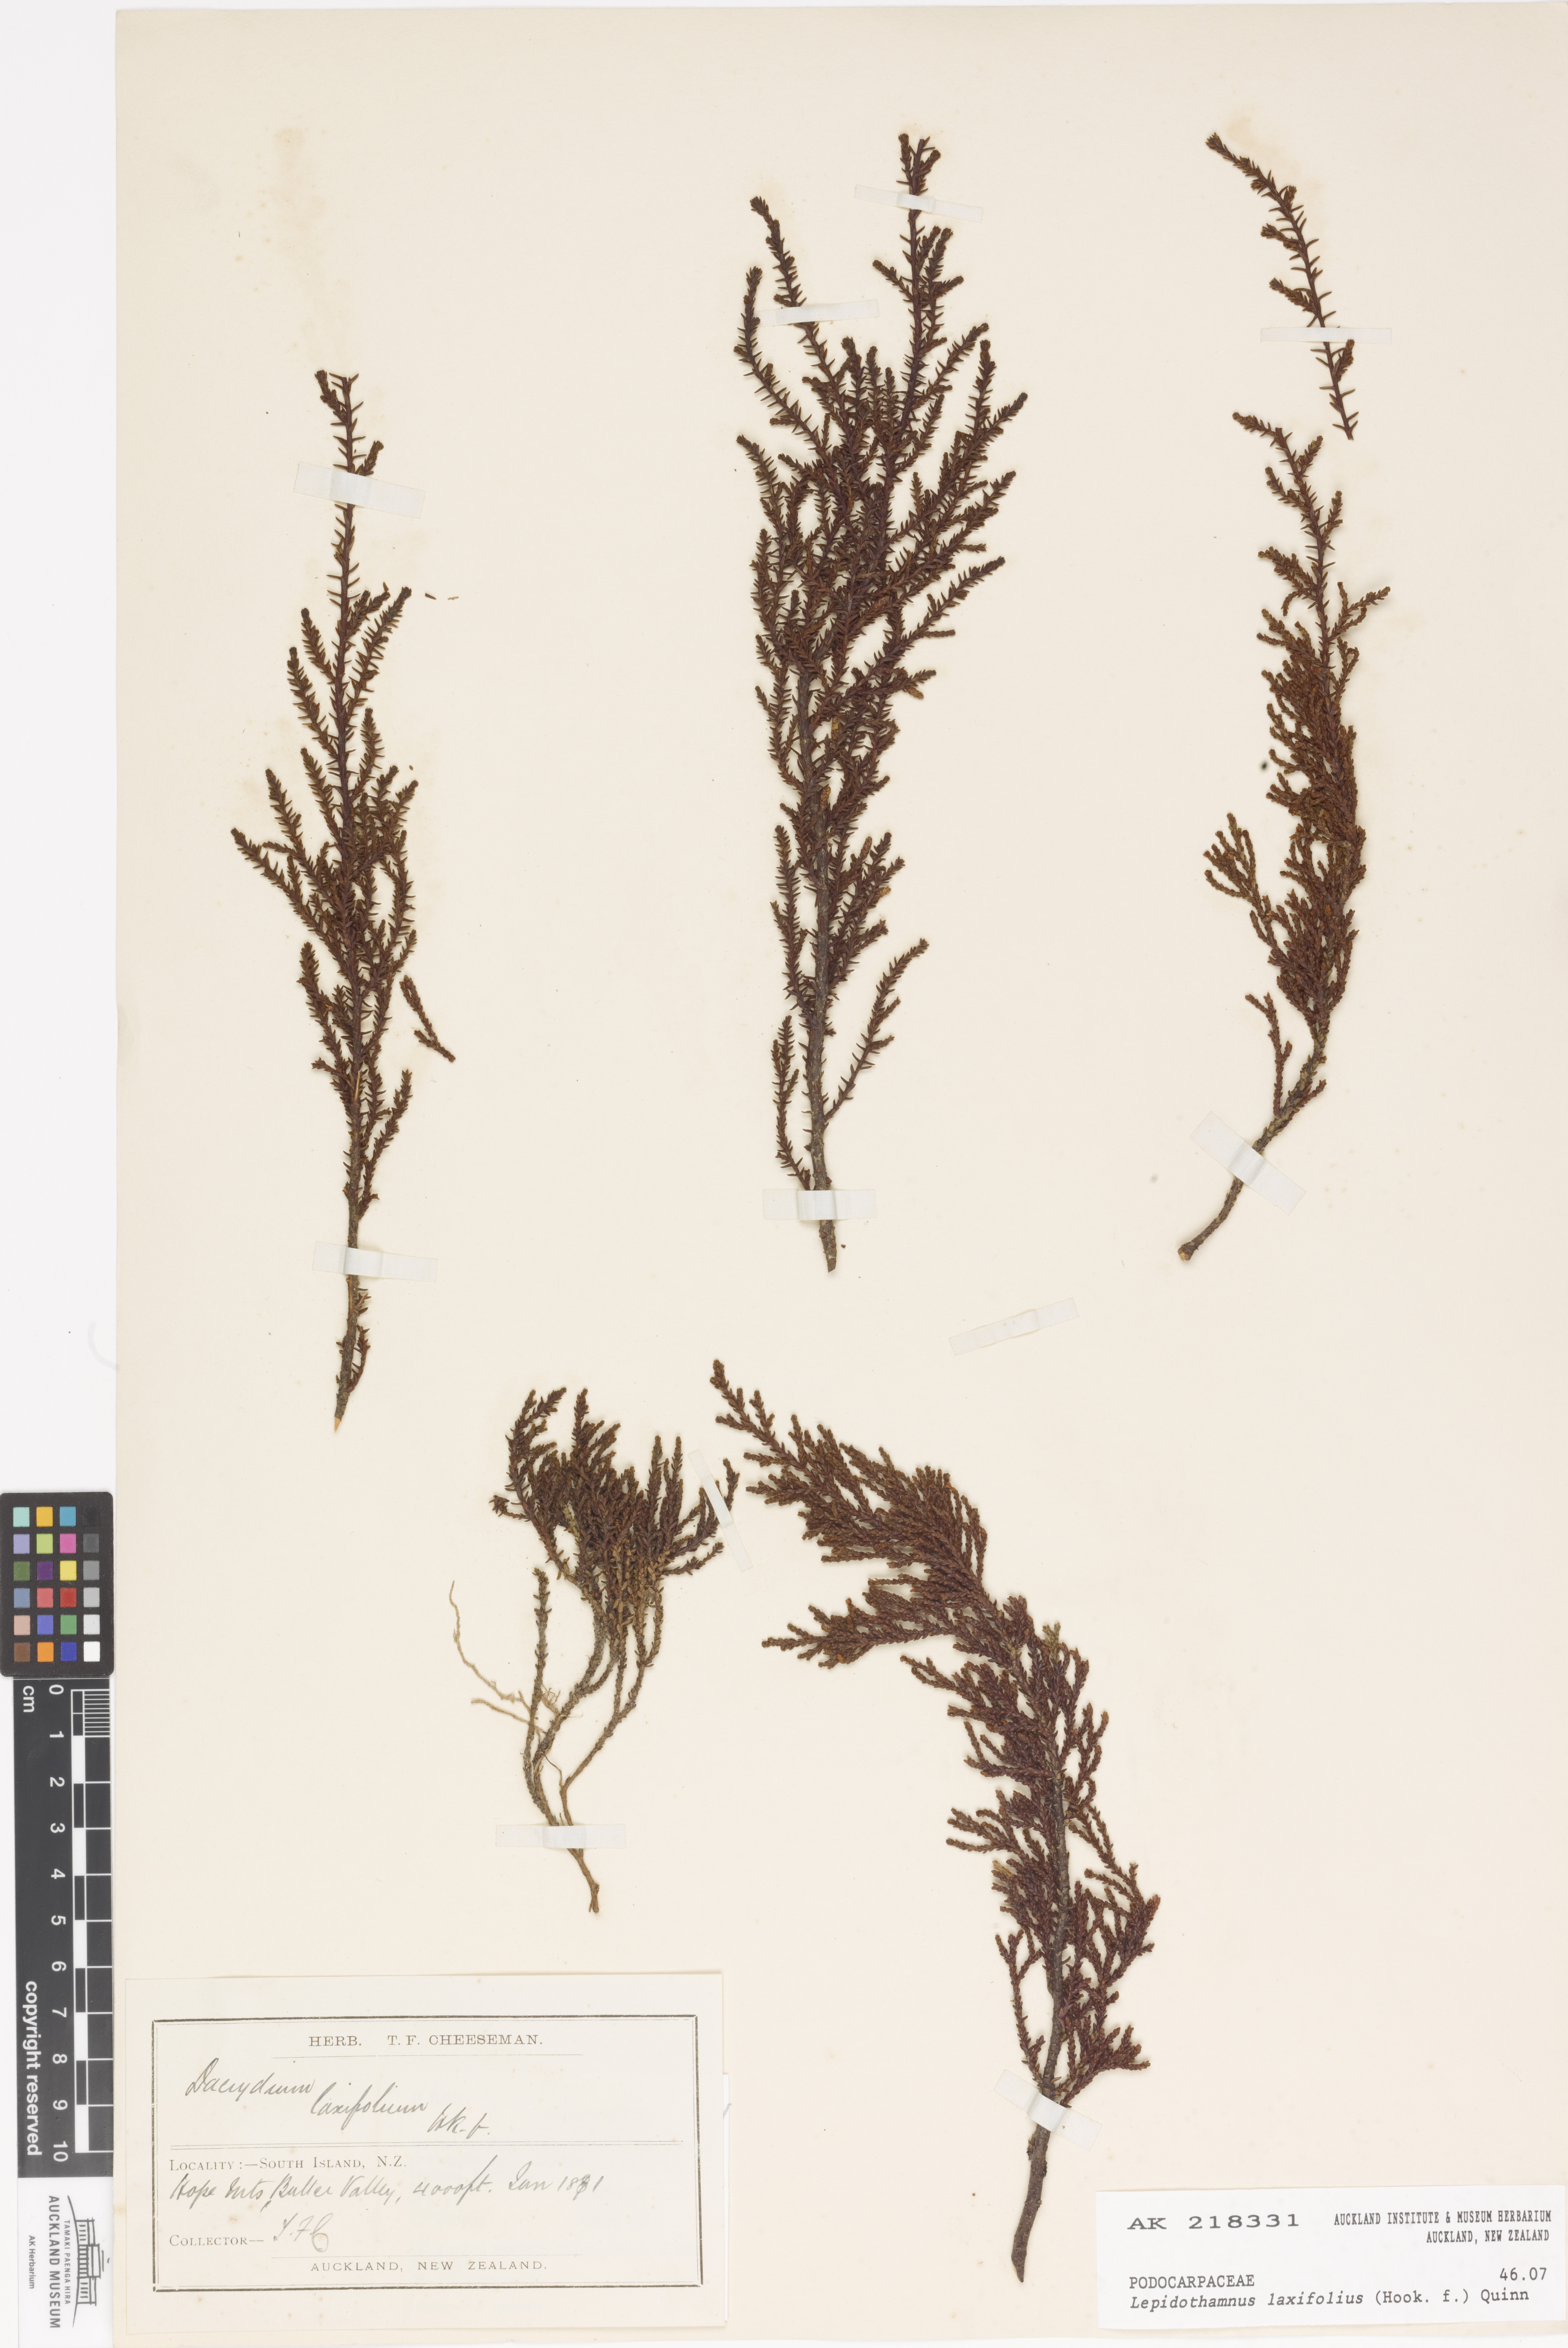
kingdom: Plantae
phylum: Tracheophyta
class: Pinopsida
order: Pinales
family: Podocarpaceae
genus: Lepidothamnus
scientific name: Lepidothamnus laxifolius
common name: Pygmy pine
